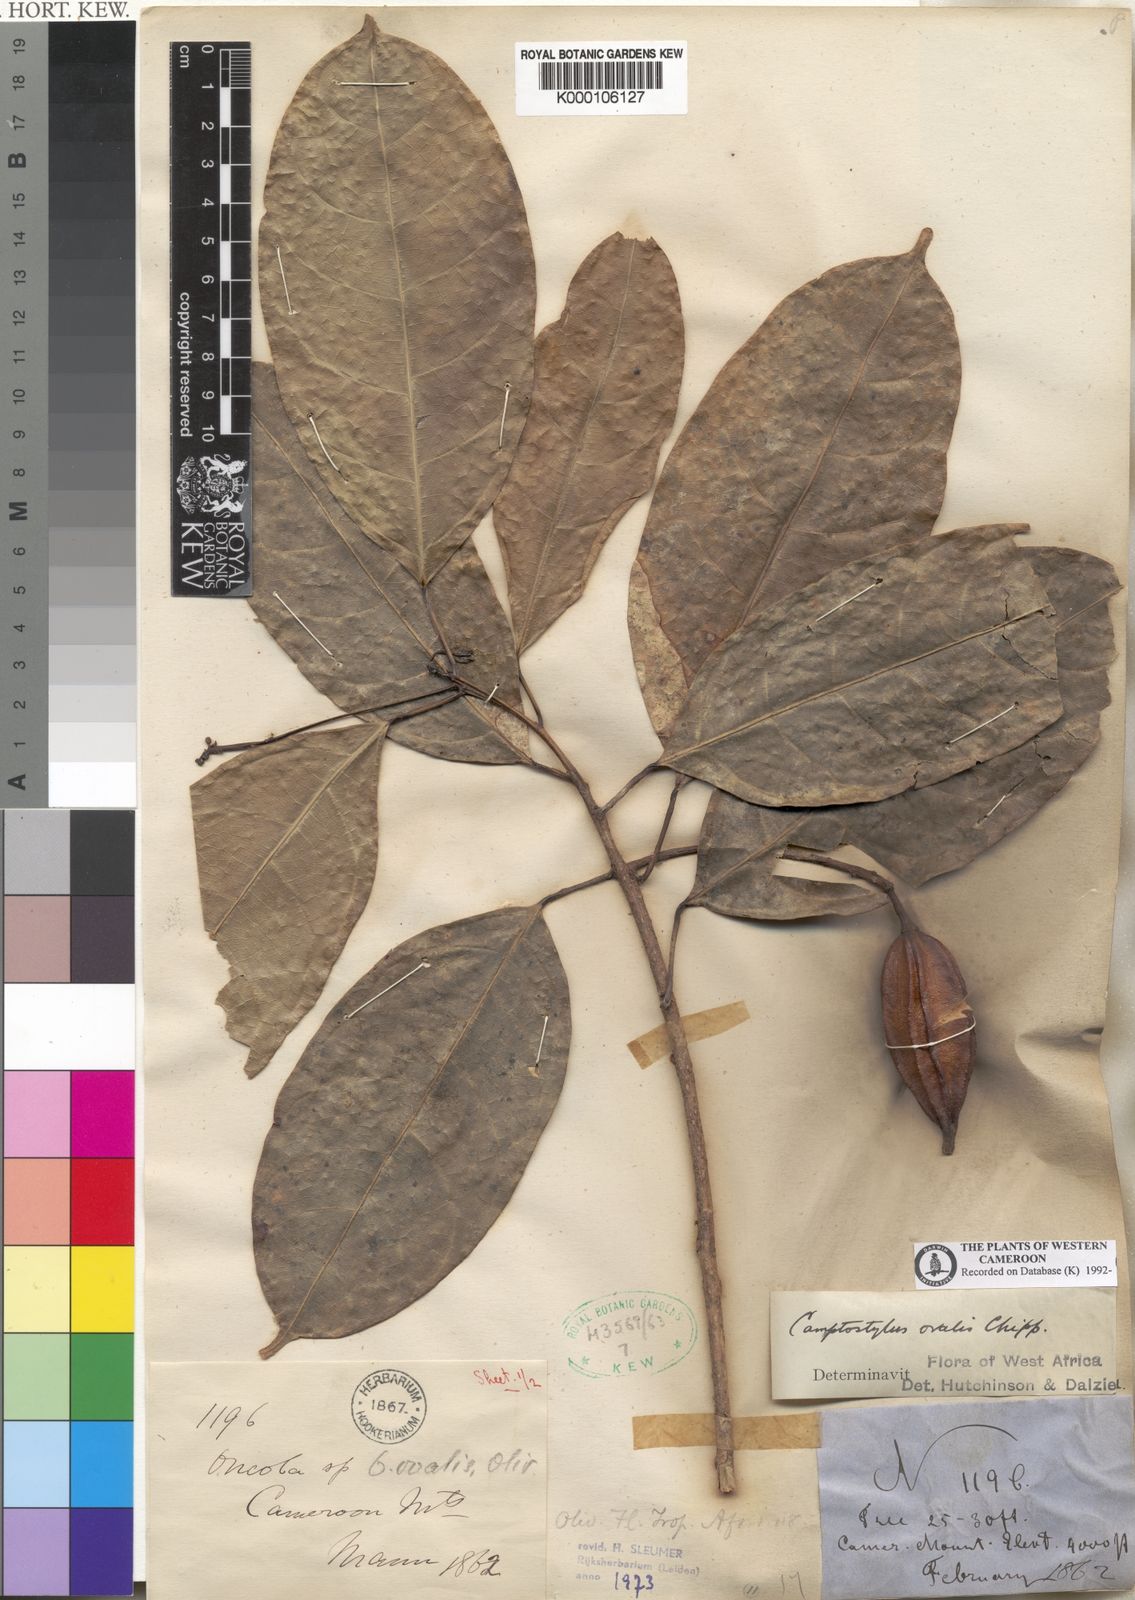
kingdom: Plantae
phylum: Tracheophyta
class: Magnoliopsida
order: Malpighiales
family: Achariaceae
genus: Camptostylus
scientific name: Camptostylus ovalis
